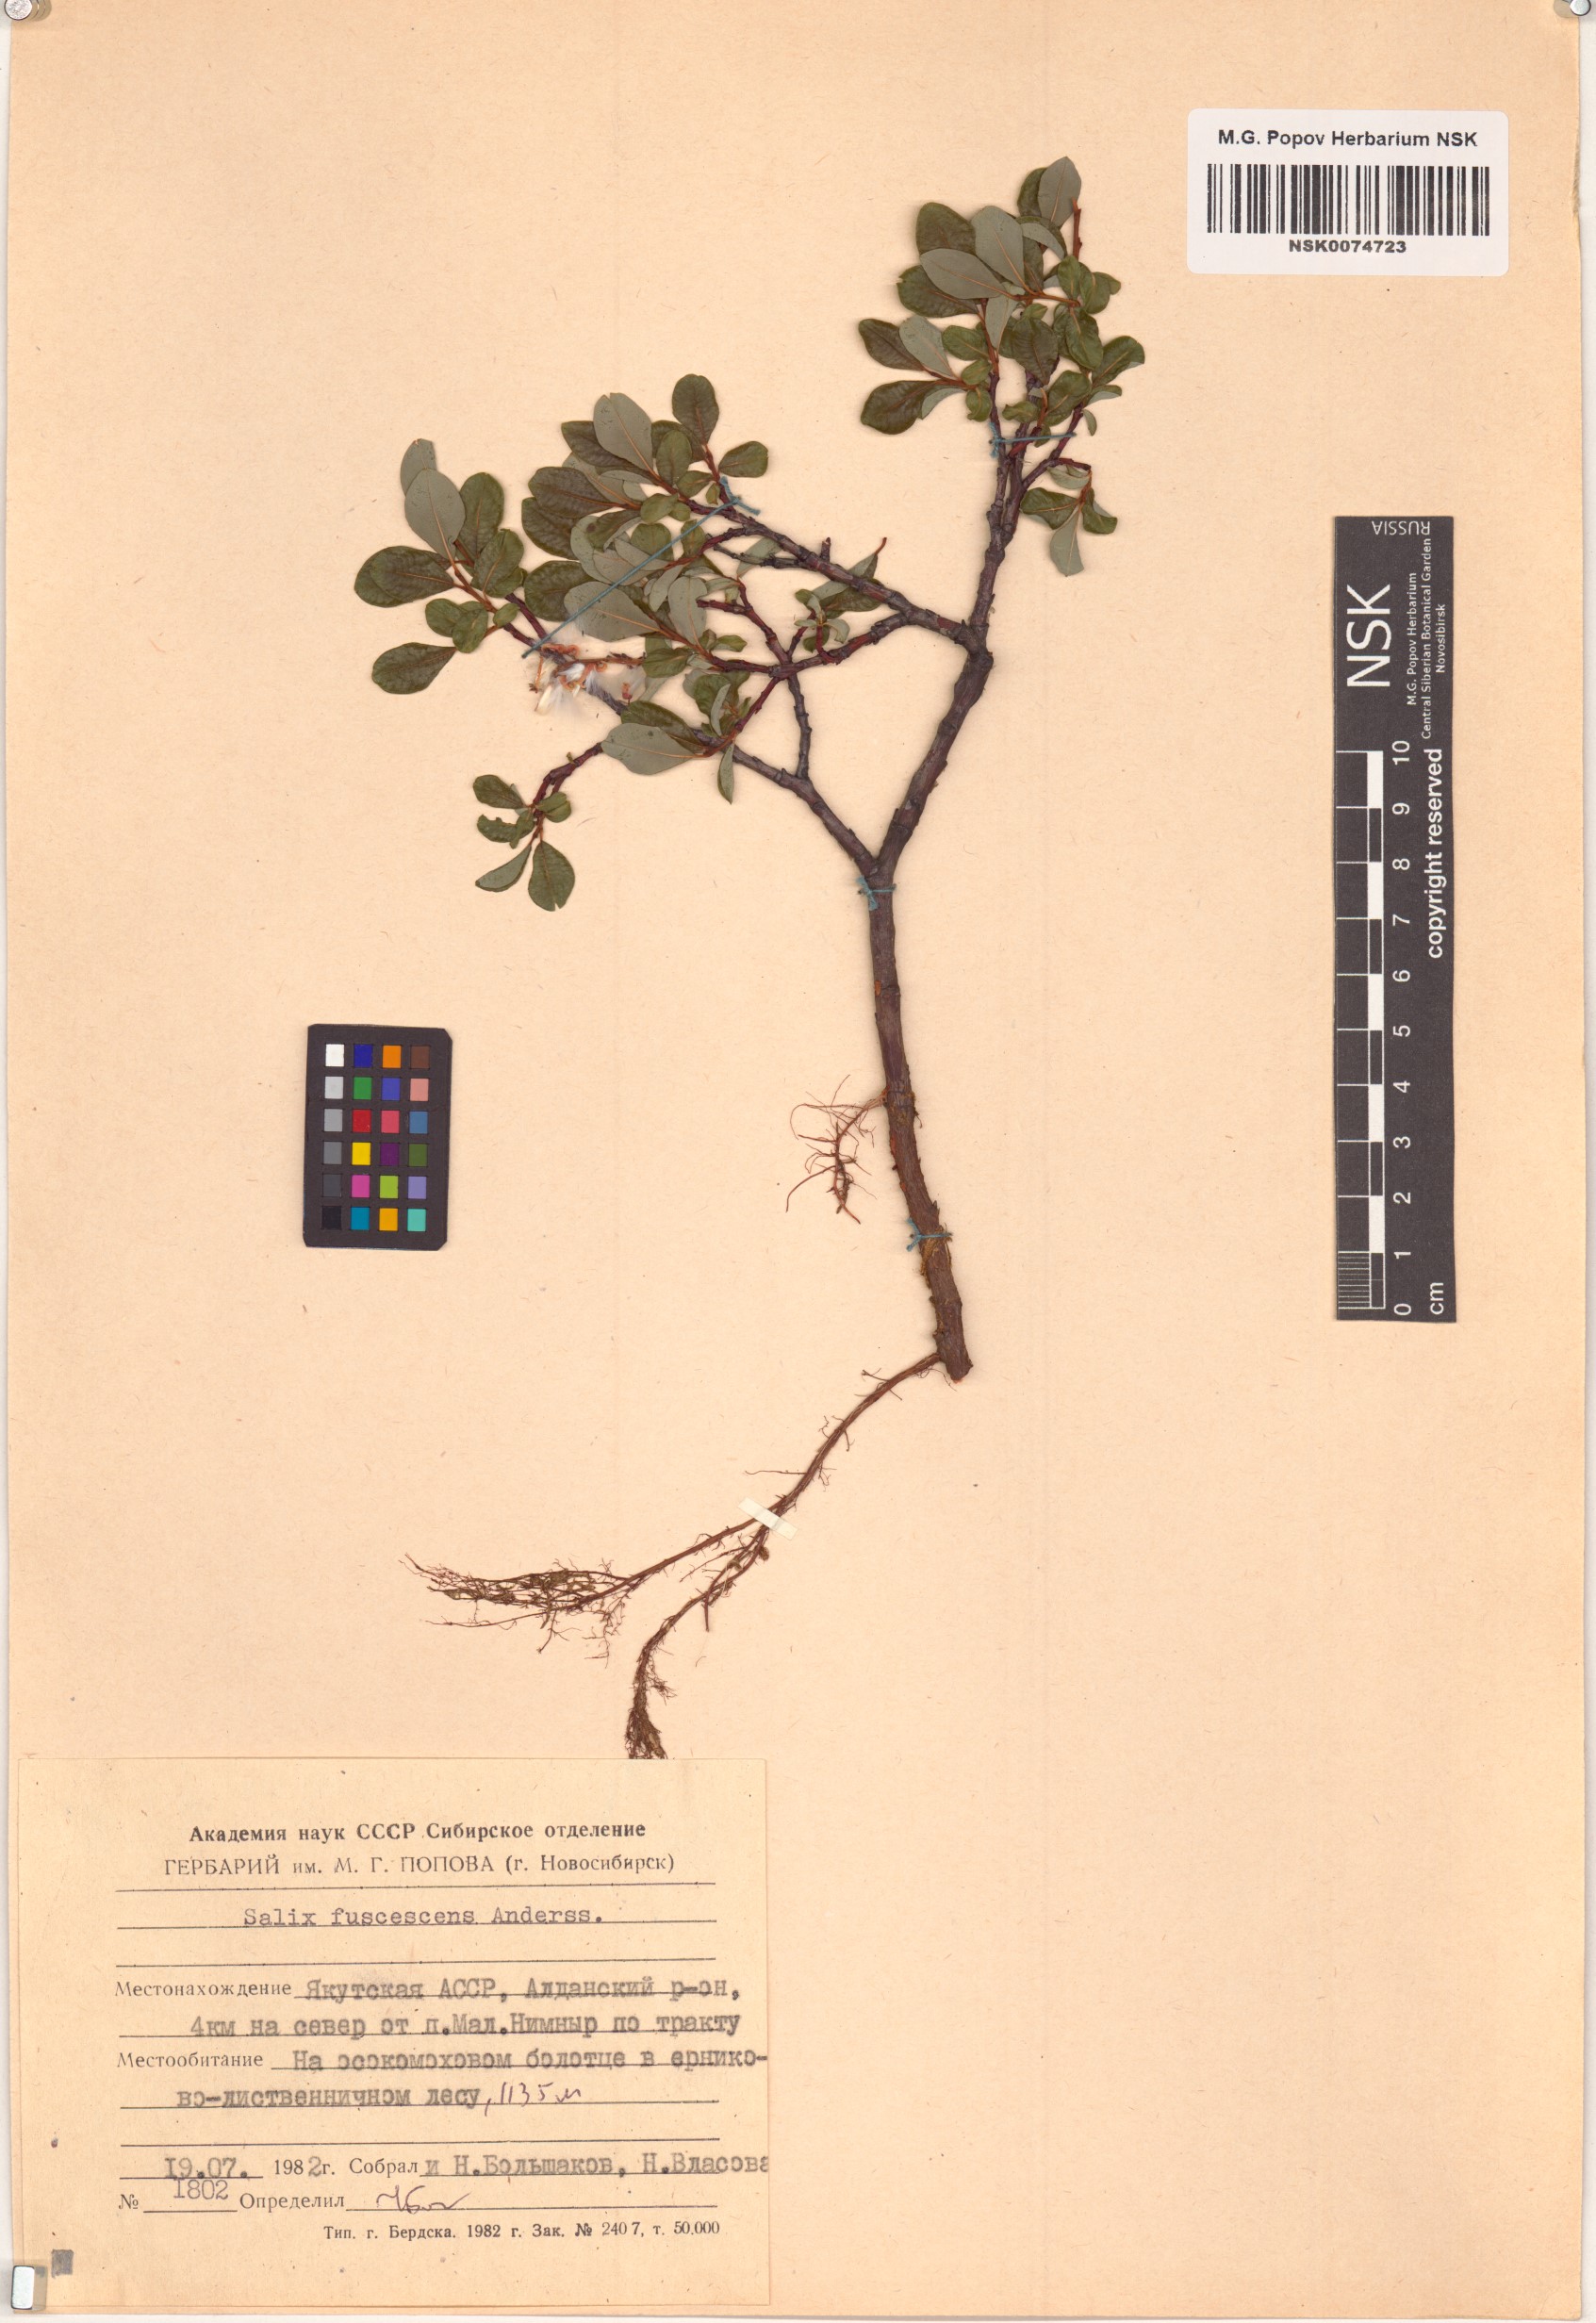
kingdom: Plantae
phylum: Tracheophyta
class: Magnoliopsida
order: Malpighiales
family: Salicaceae
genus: Salix
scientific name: Salix fuscescens
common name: Brownish willow
